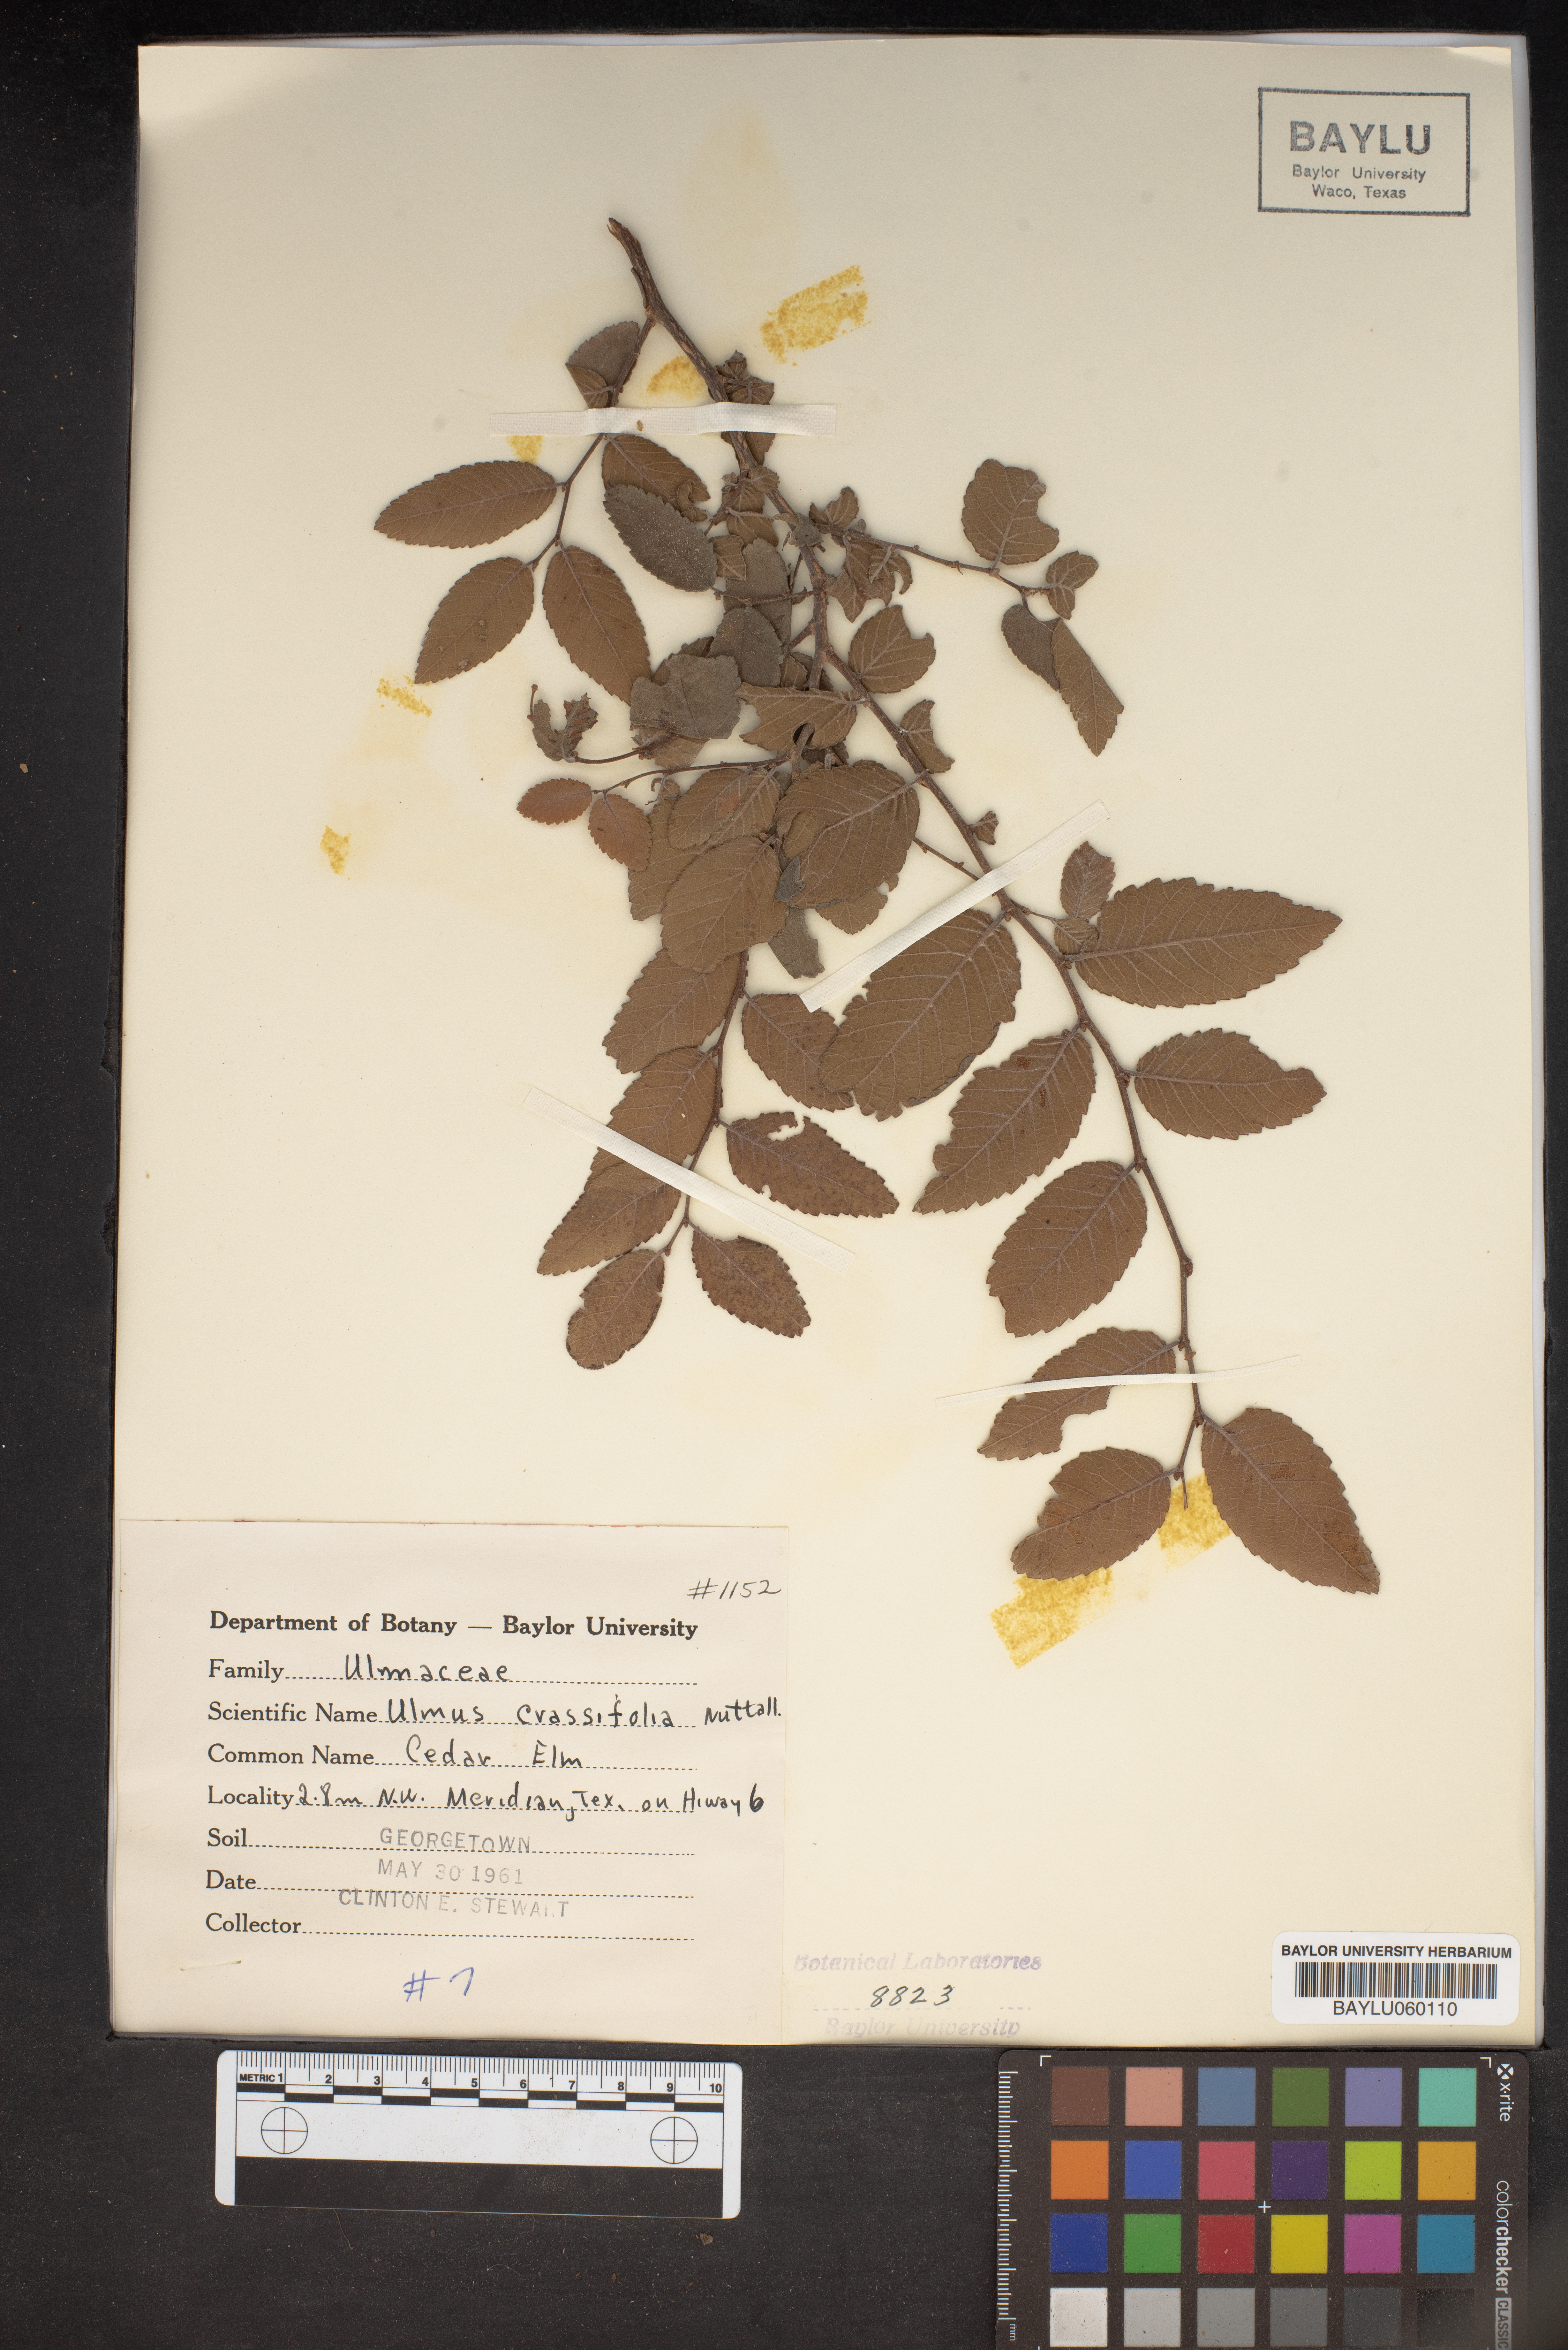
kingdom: Plantae
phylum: Tracheophyta
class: Magnoliopsida
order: Rosales
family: Ulmaceae
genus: Ulmus
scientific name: Ulmus crassifolia
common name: Basket elm
